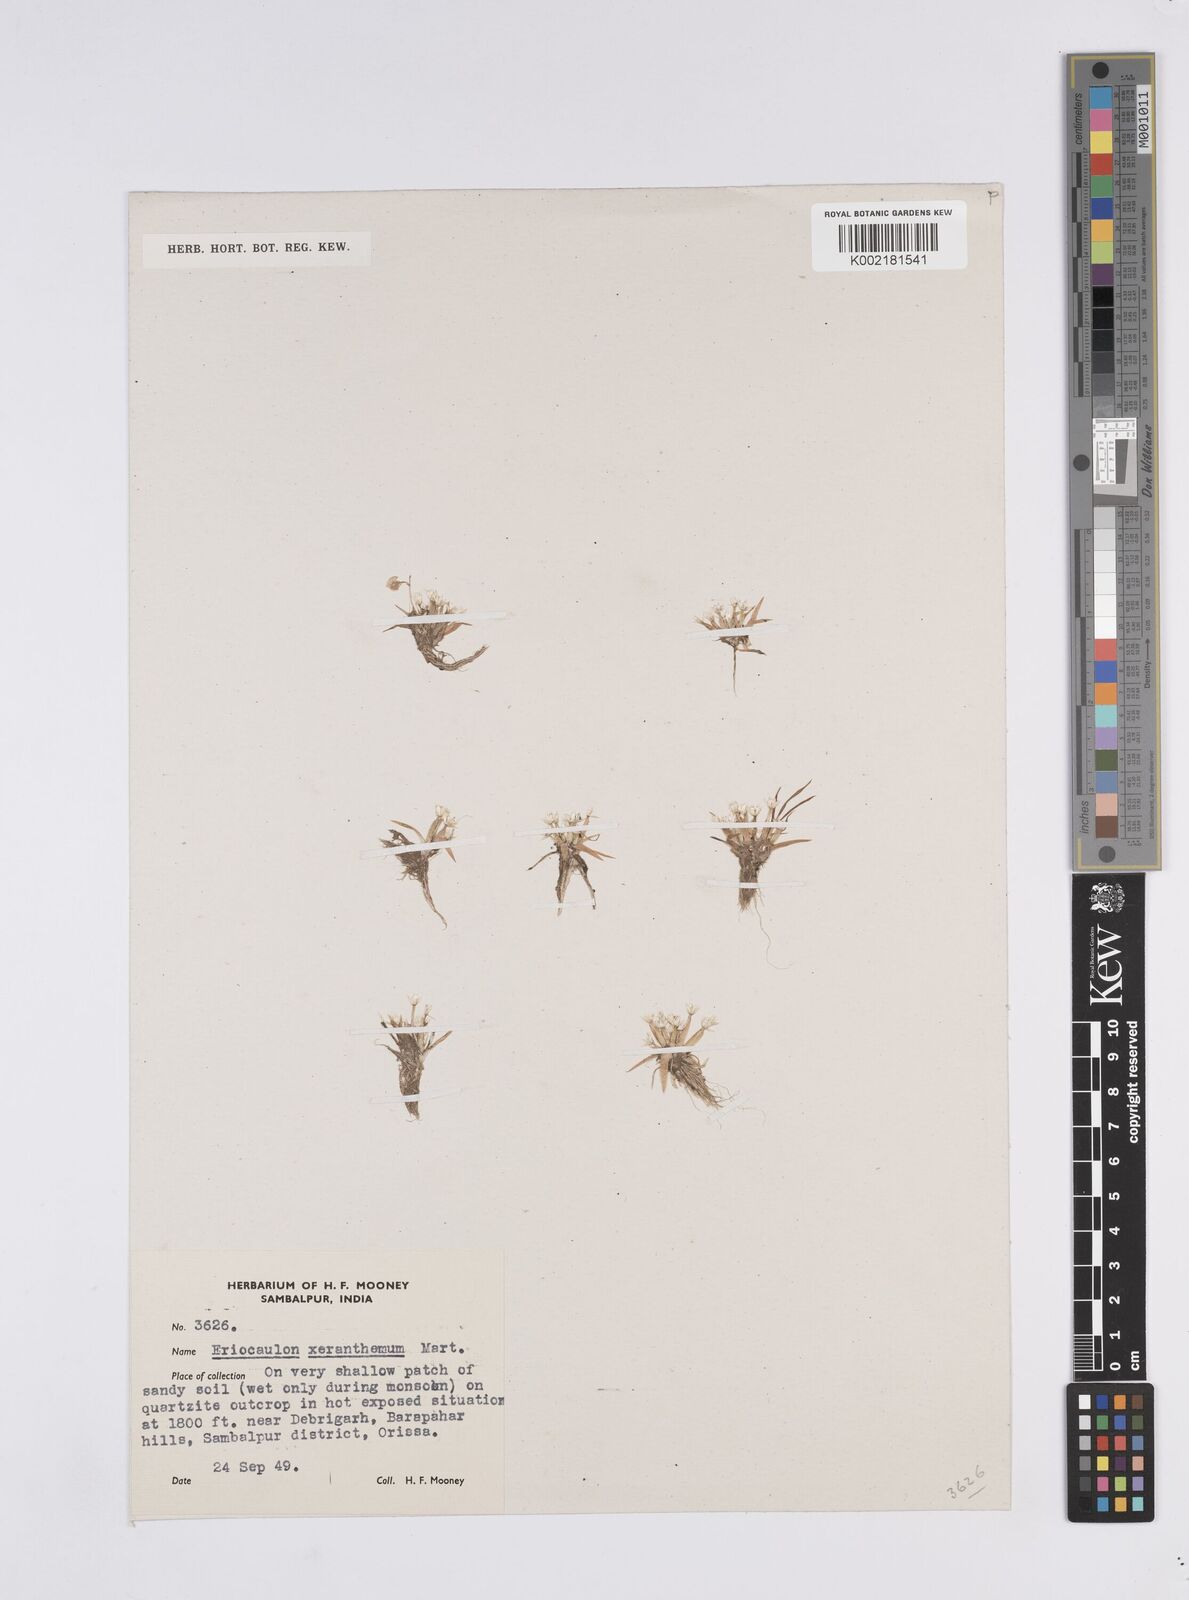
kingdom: Plantae
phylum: Tracheophyta
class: Liliopsida
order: Poales
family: Eriocaulaceae
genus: Eriocaulon
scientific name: Eriocaulon xeranthemum
